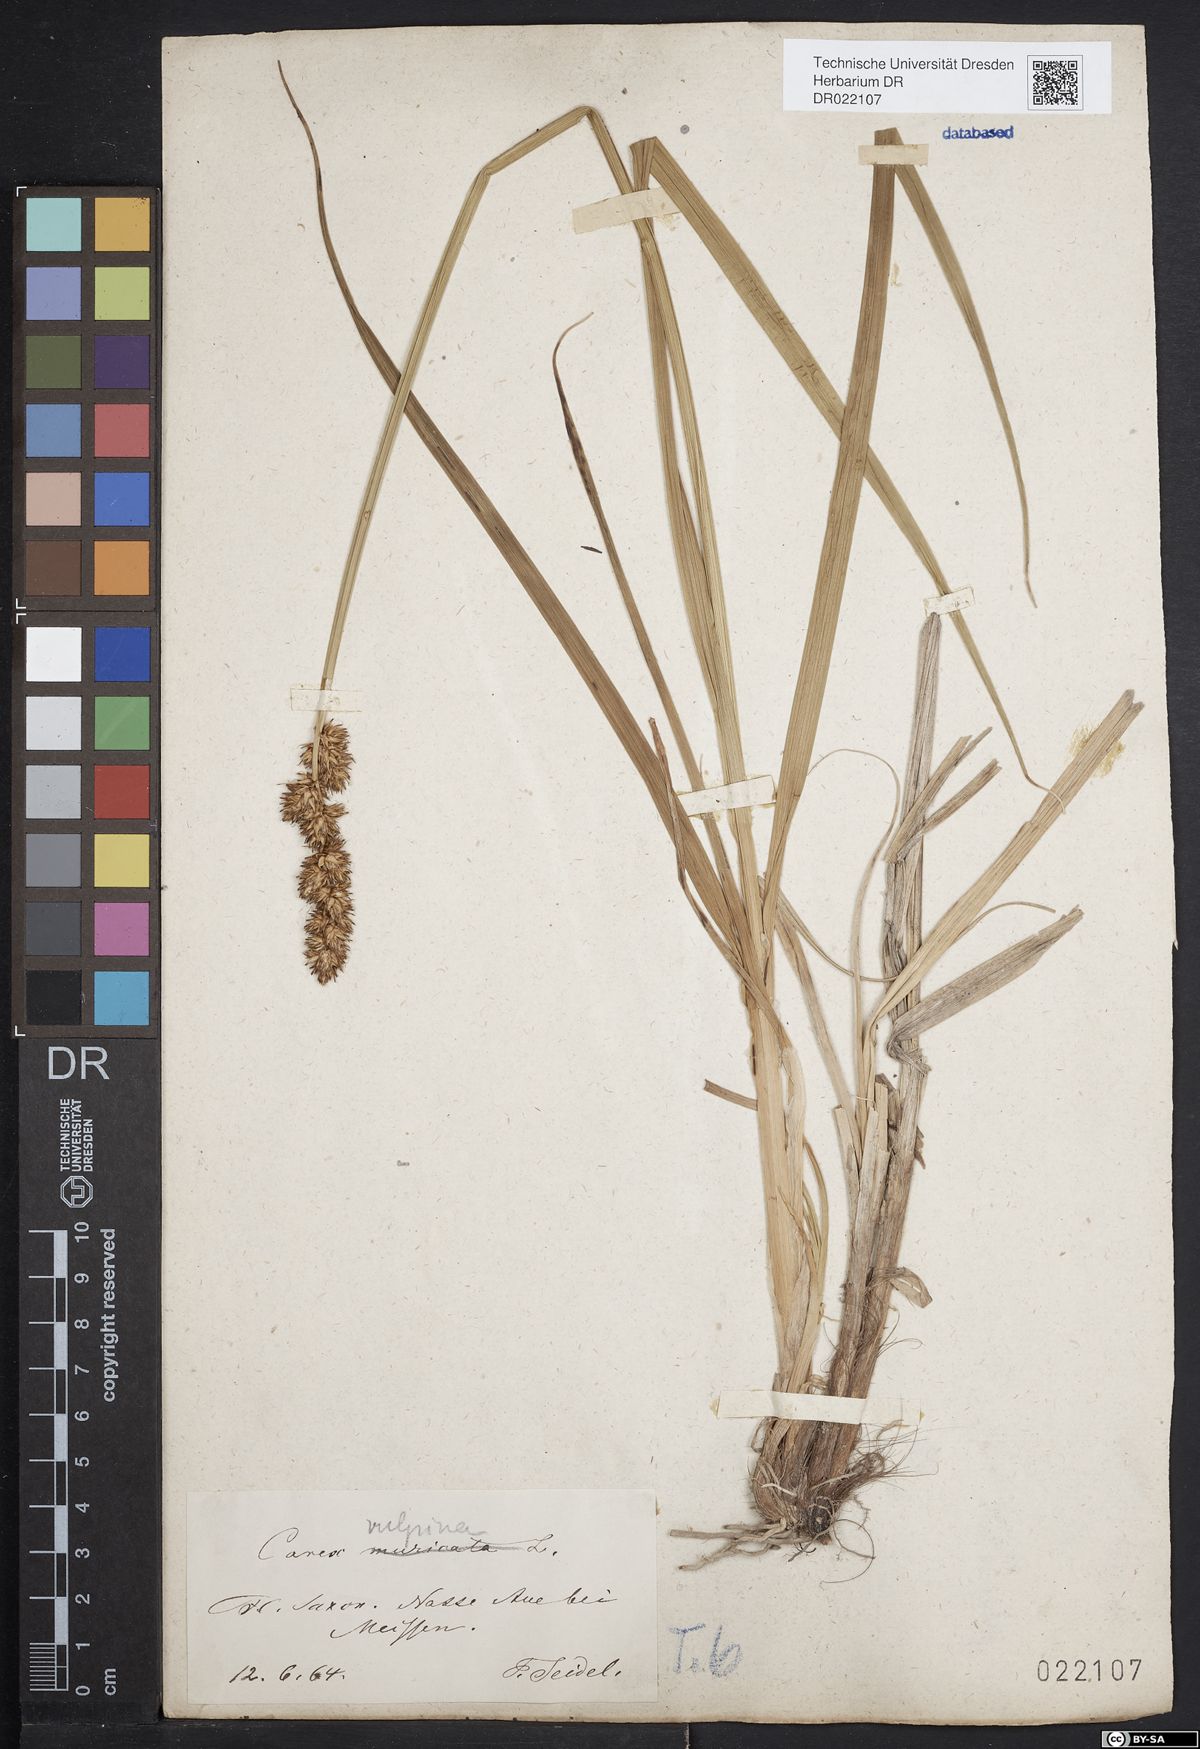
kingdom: Plantae
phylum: Tracheophyta
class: Liliopsida
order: Poales
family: Cyperaceae
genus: Carex
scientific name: Carex vulpina
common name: True fox-sedge
